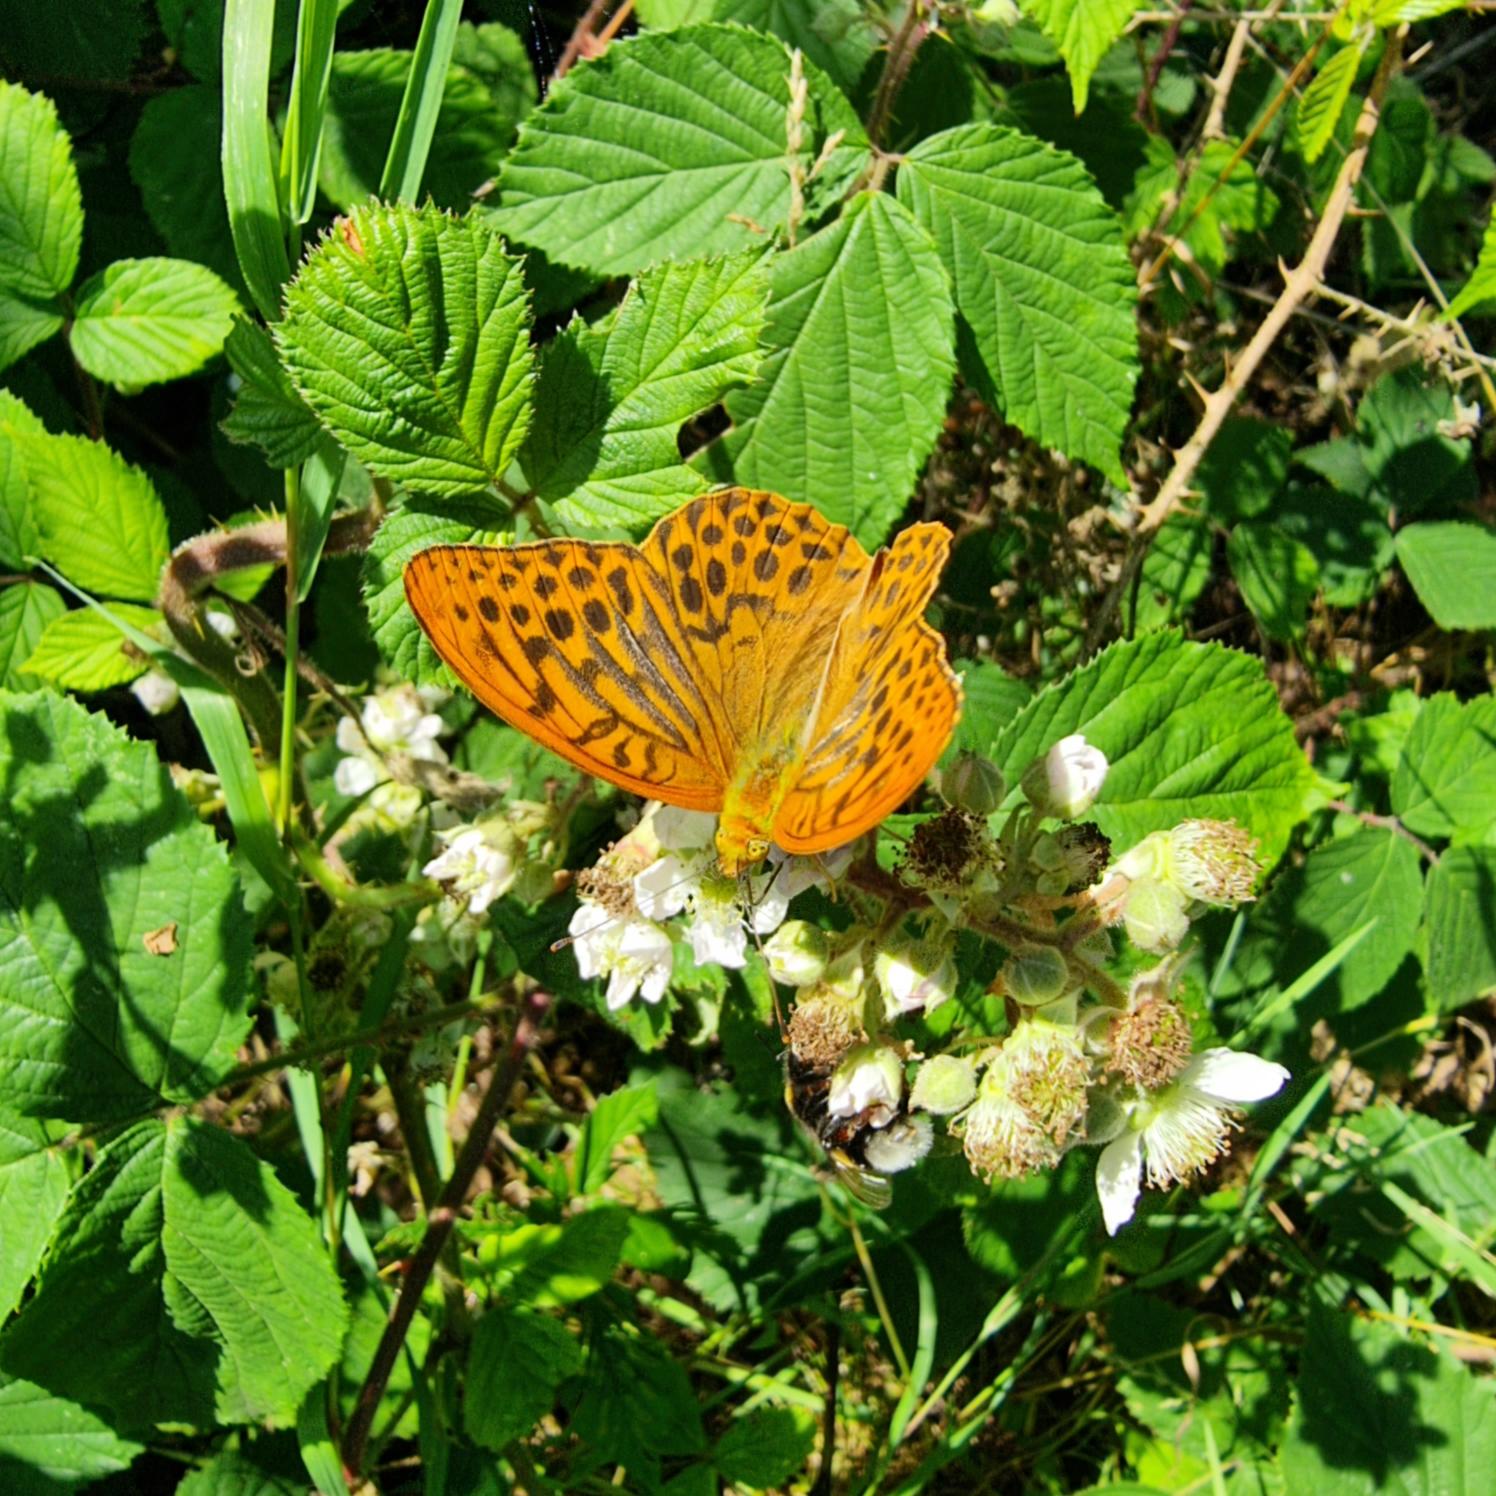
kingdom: Animalia
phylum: Arthropoda
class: Insecta
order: Lepidoptera
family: Nymphalidae
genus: Argynnis
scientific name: Argynnis paphia
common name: Kejserkåbe
